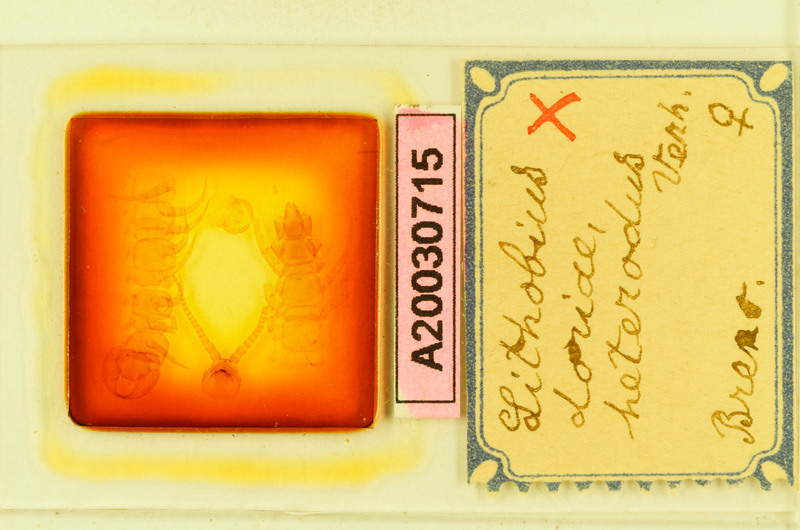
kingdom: Animalia
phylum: Arthropoda
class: Chilopoda
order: Lithobiomorpha
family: Lithobiidae
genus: Lithobius
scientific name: Lithobius pilicornis
